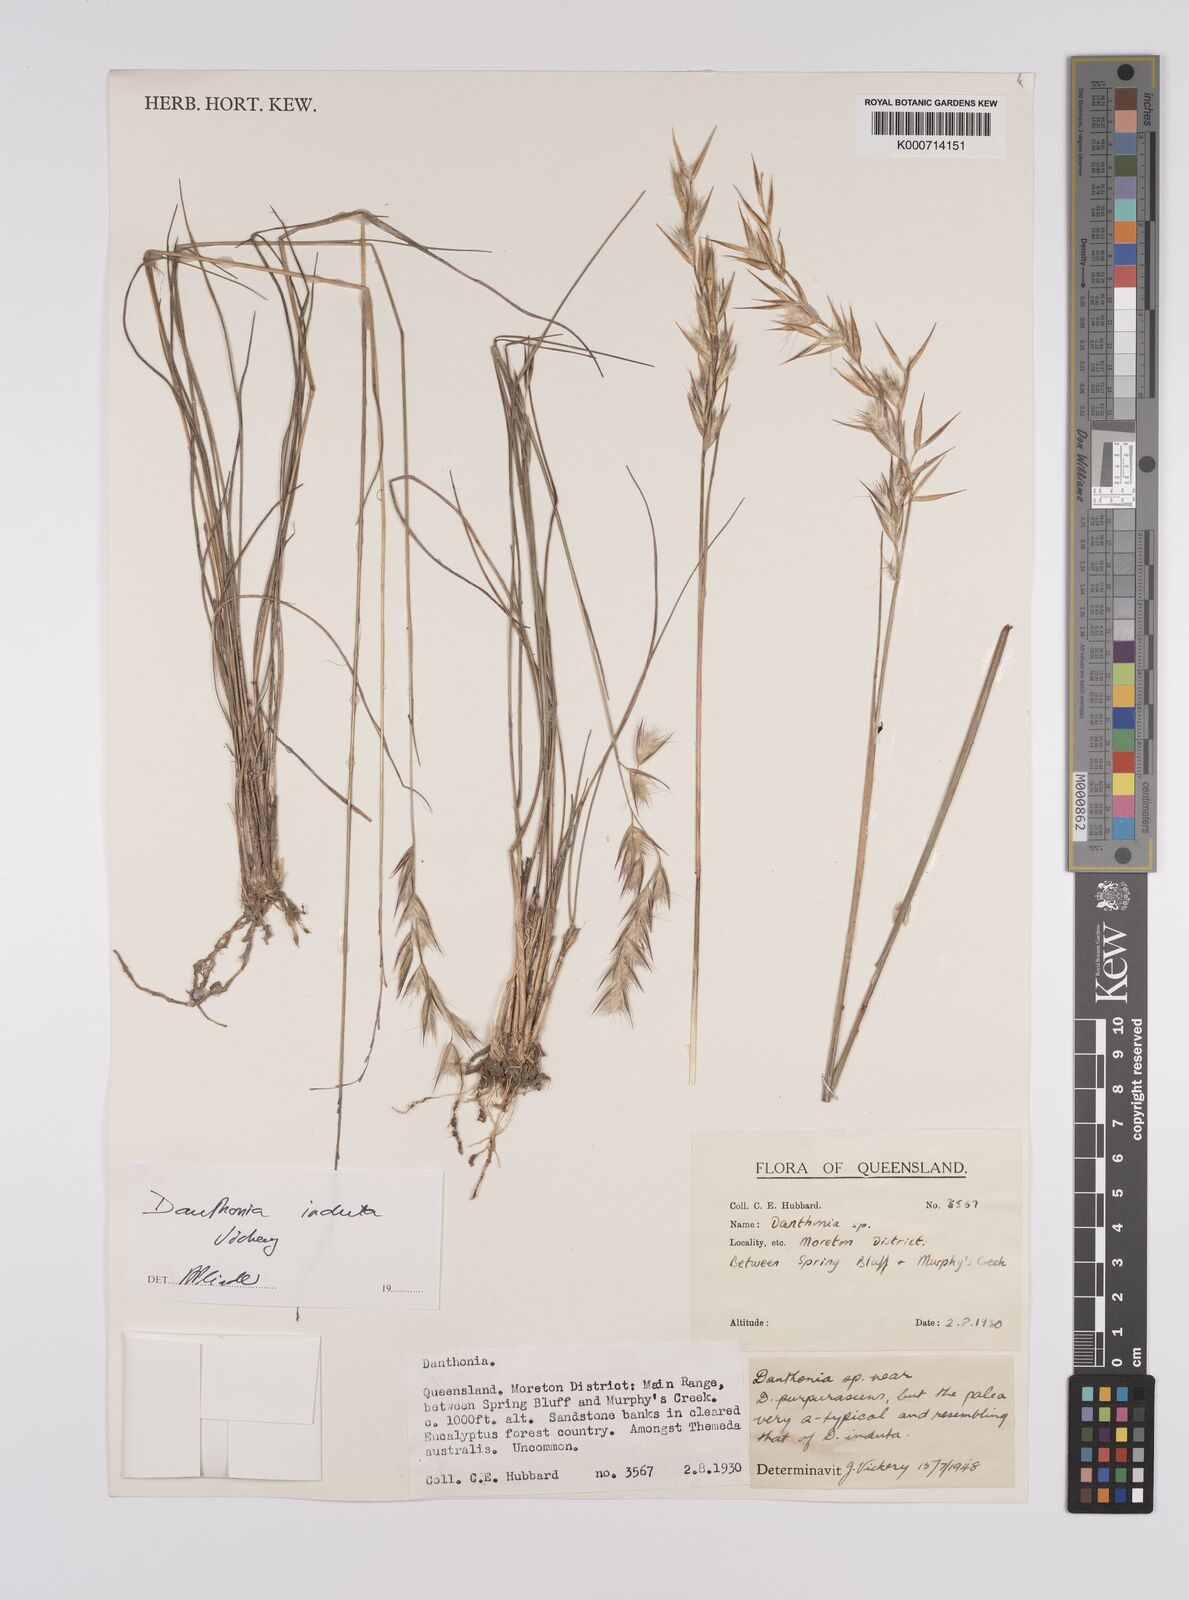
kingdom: Plantae
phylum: Tracheophyta
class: Liliopsida
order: Poales
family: Poaceae
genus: Rytidosperma
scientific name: Rytidosperma
